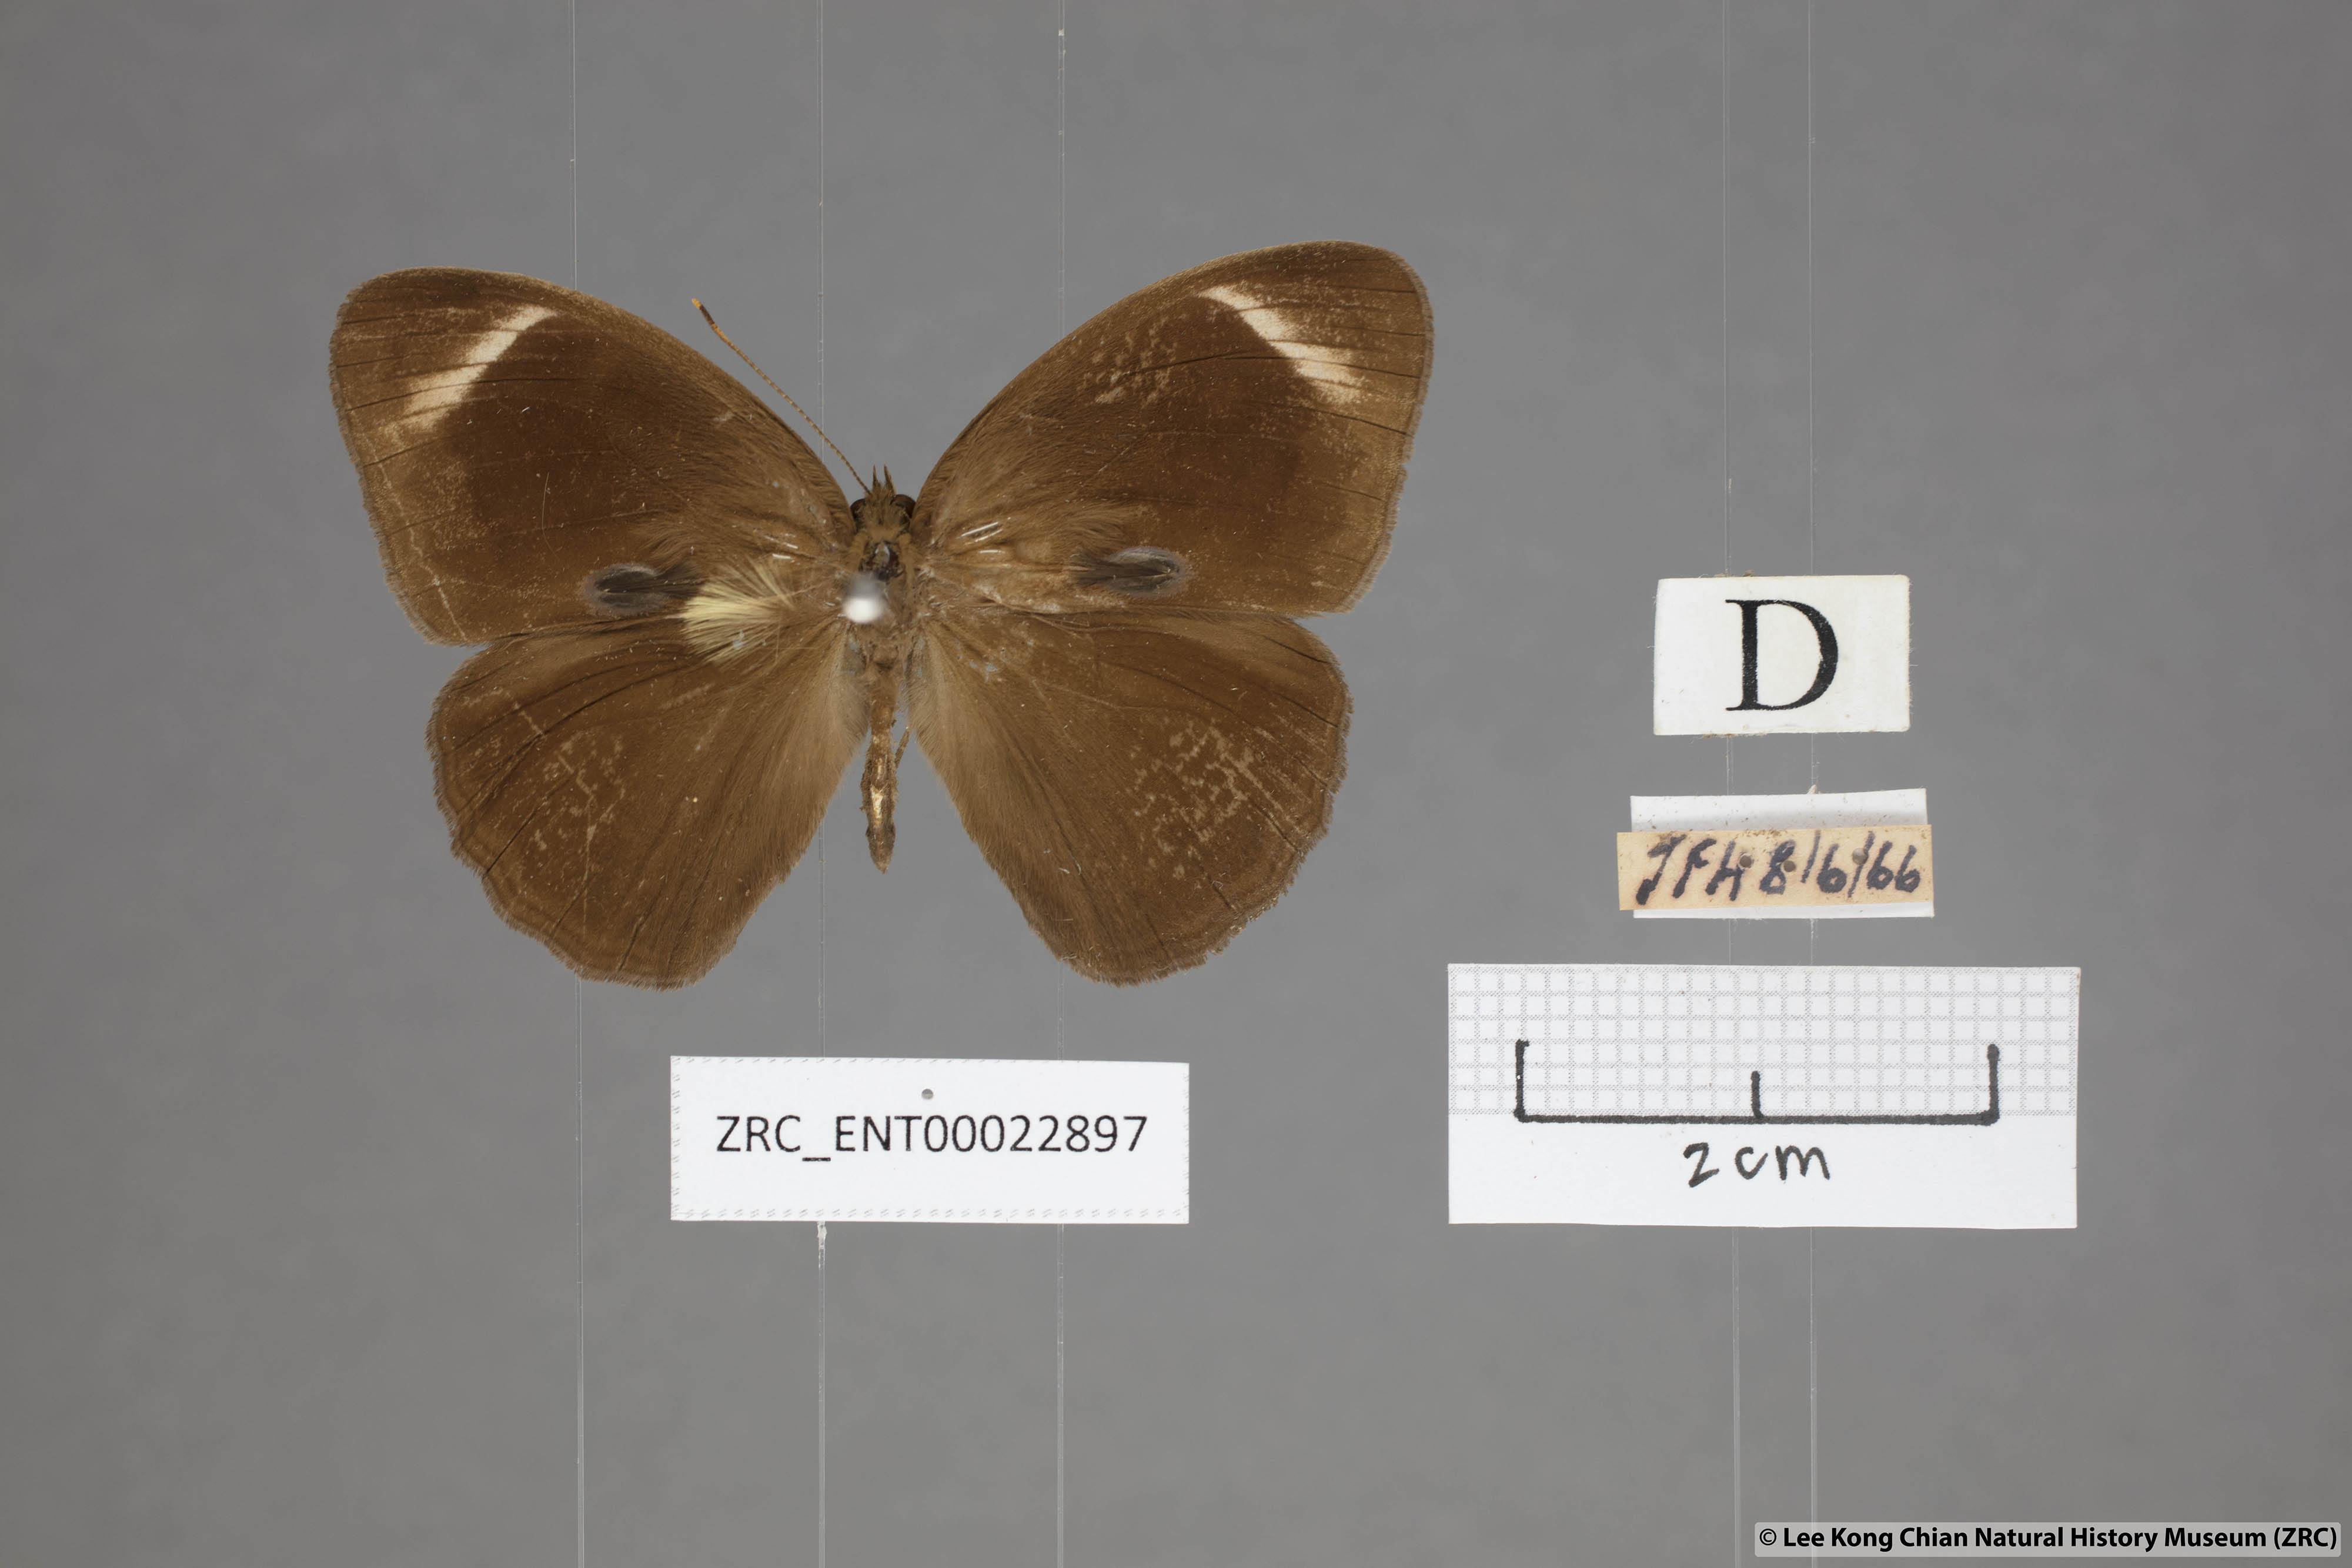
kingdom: Animalia
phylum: Arthropoda
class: Insecta
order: Lepidoptera
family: Nymphalidae
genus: Mycalesis
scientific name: Mycalesis anaxias
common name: White-bar bushbrown
